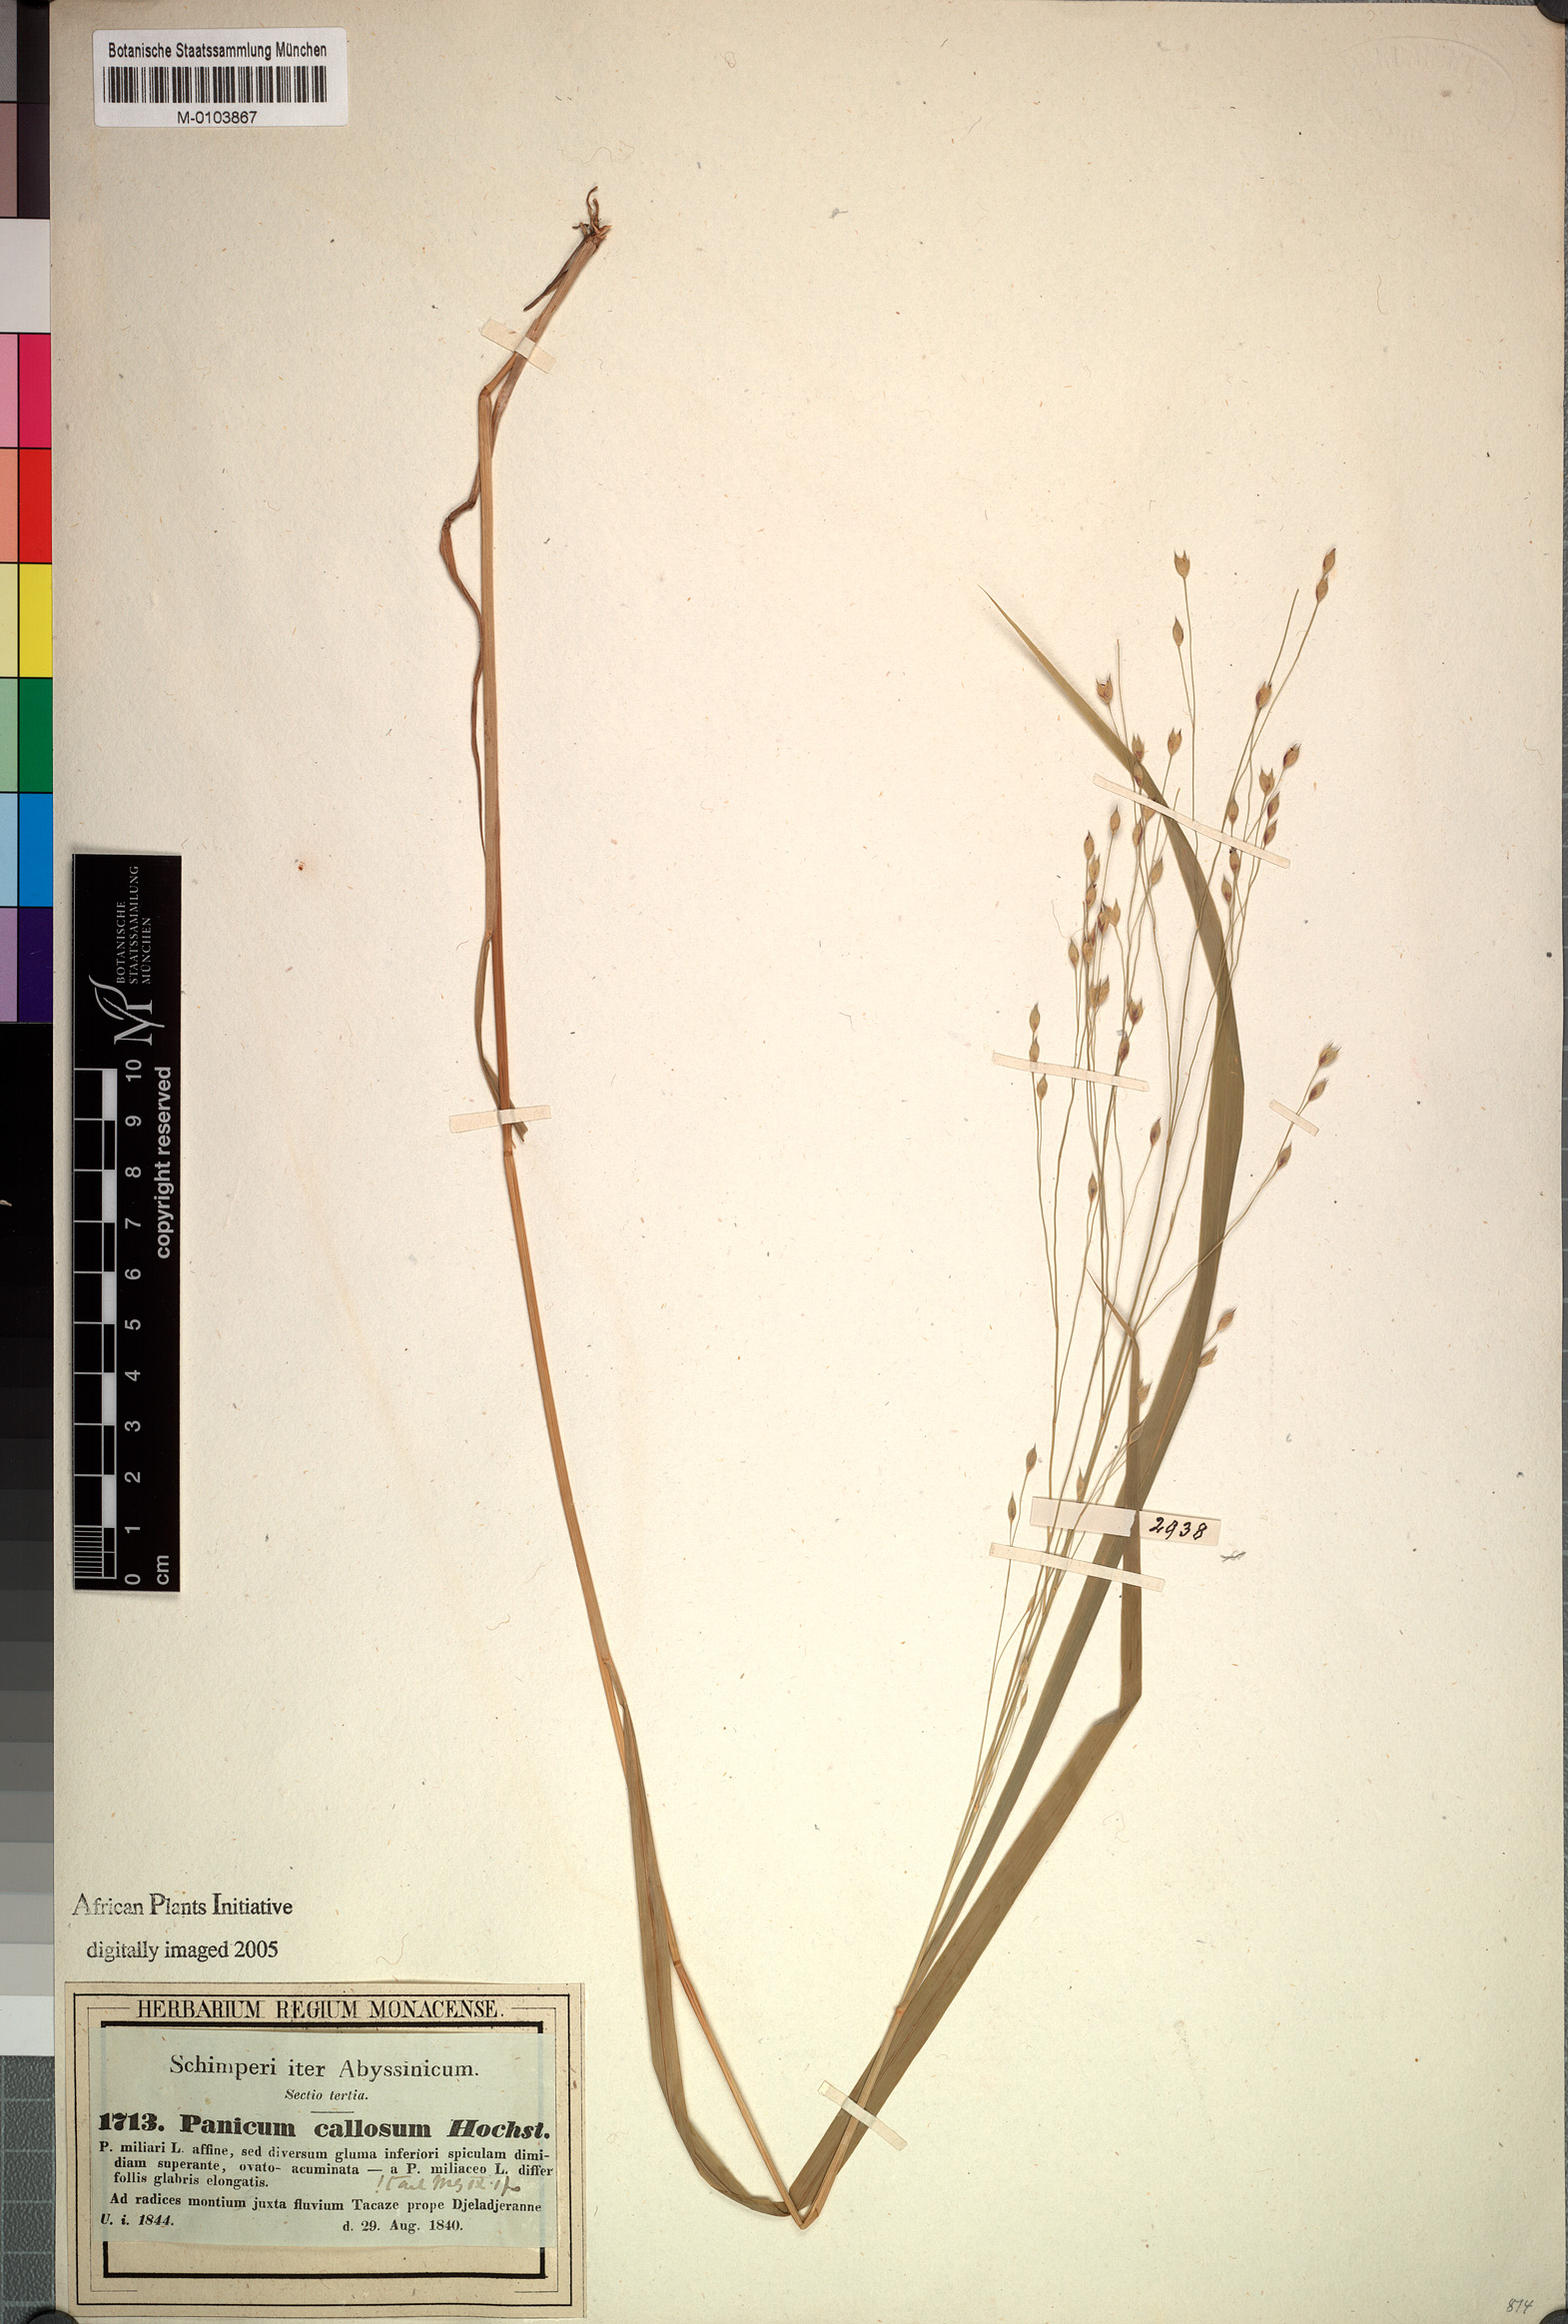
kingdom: Plantae
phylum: Tracheophyta
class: Liliopsida
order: Poales
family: Poaceae
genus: Panicum
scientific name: Panicum callosum
